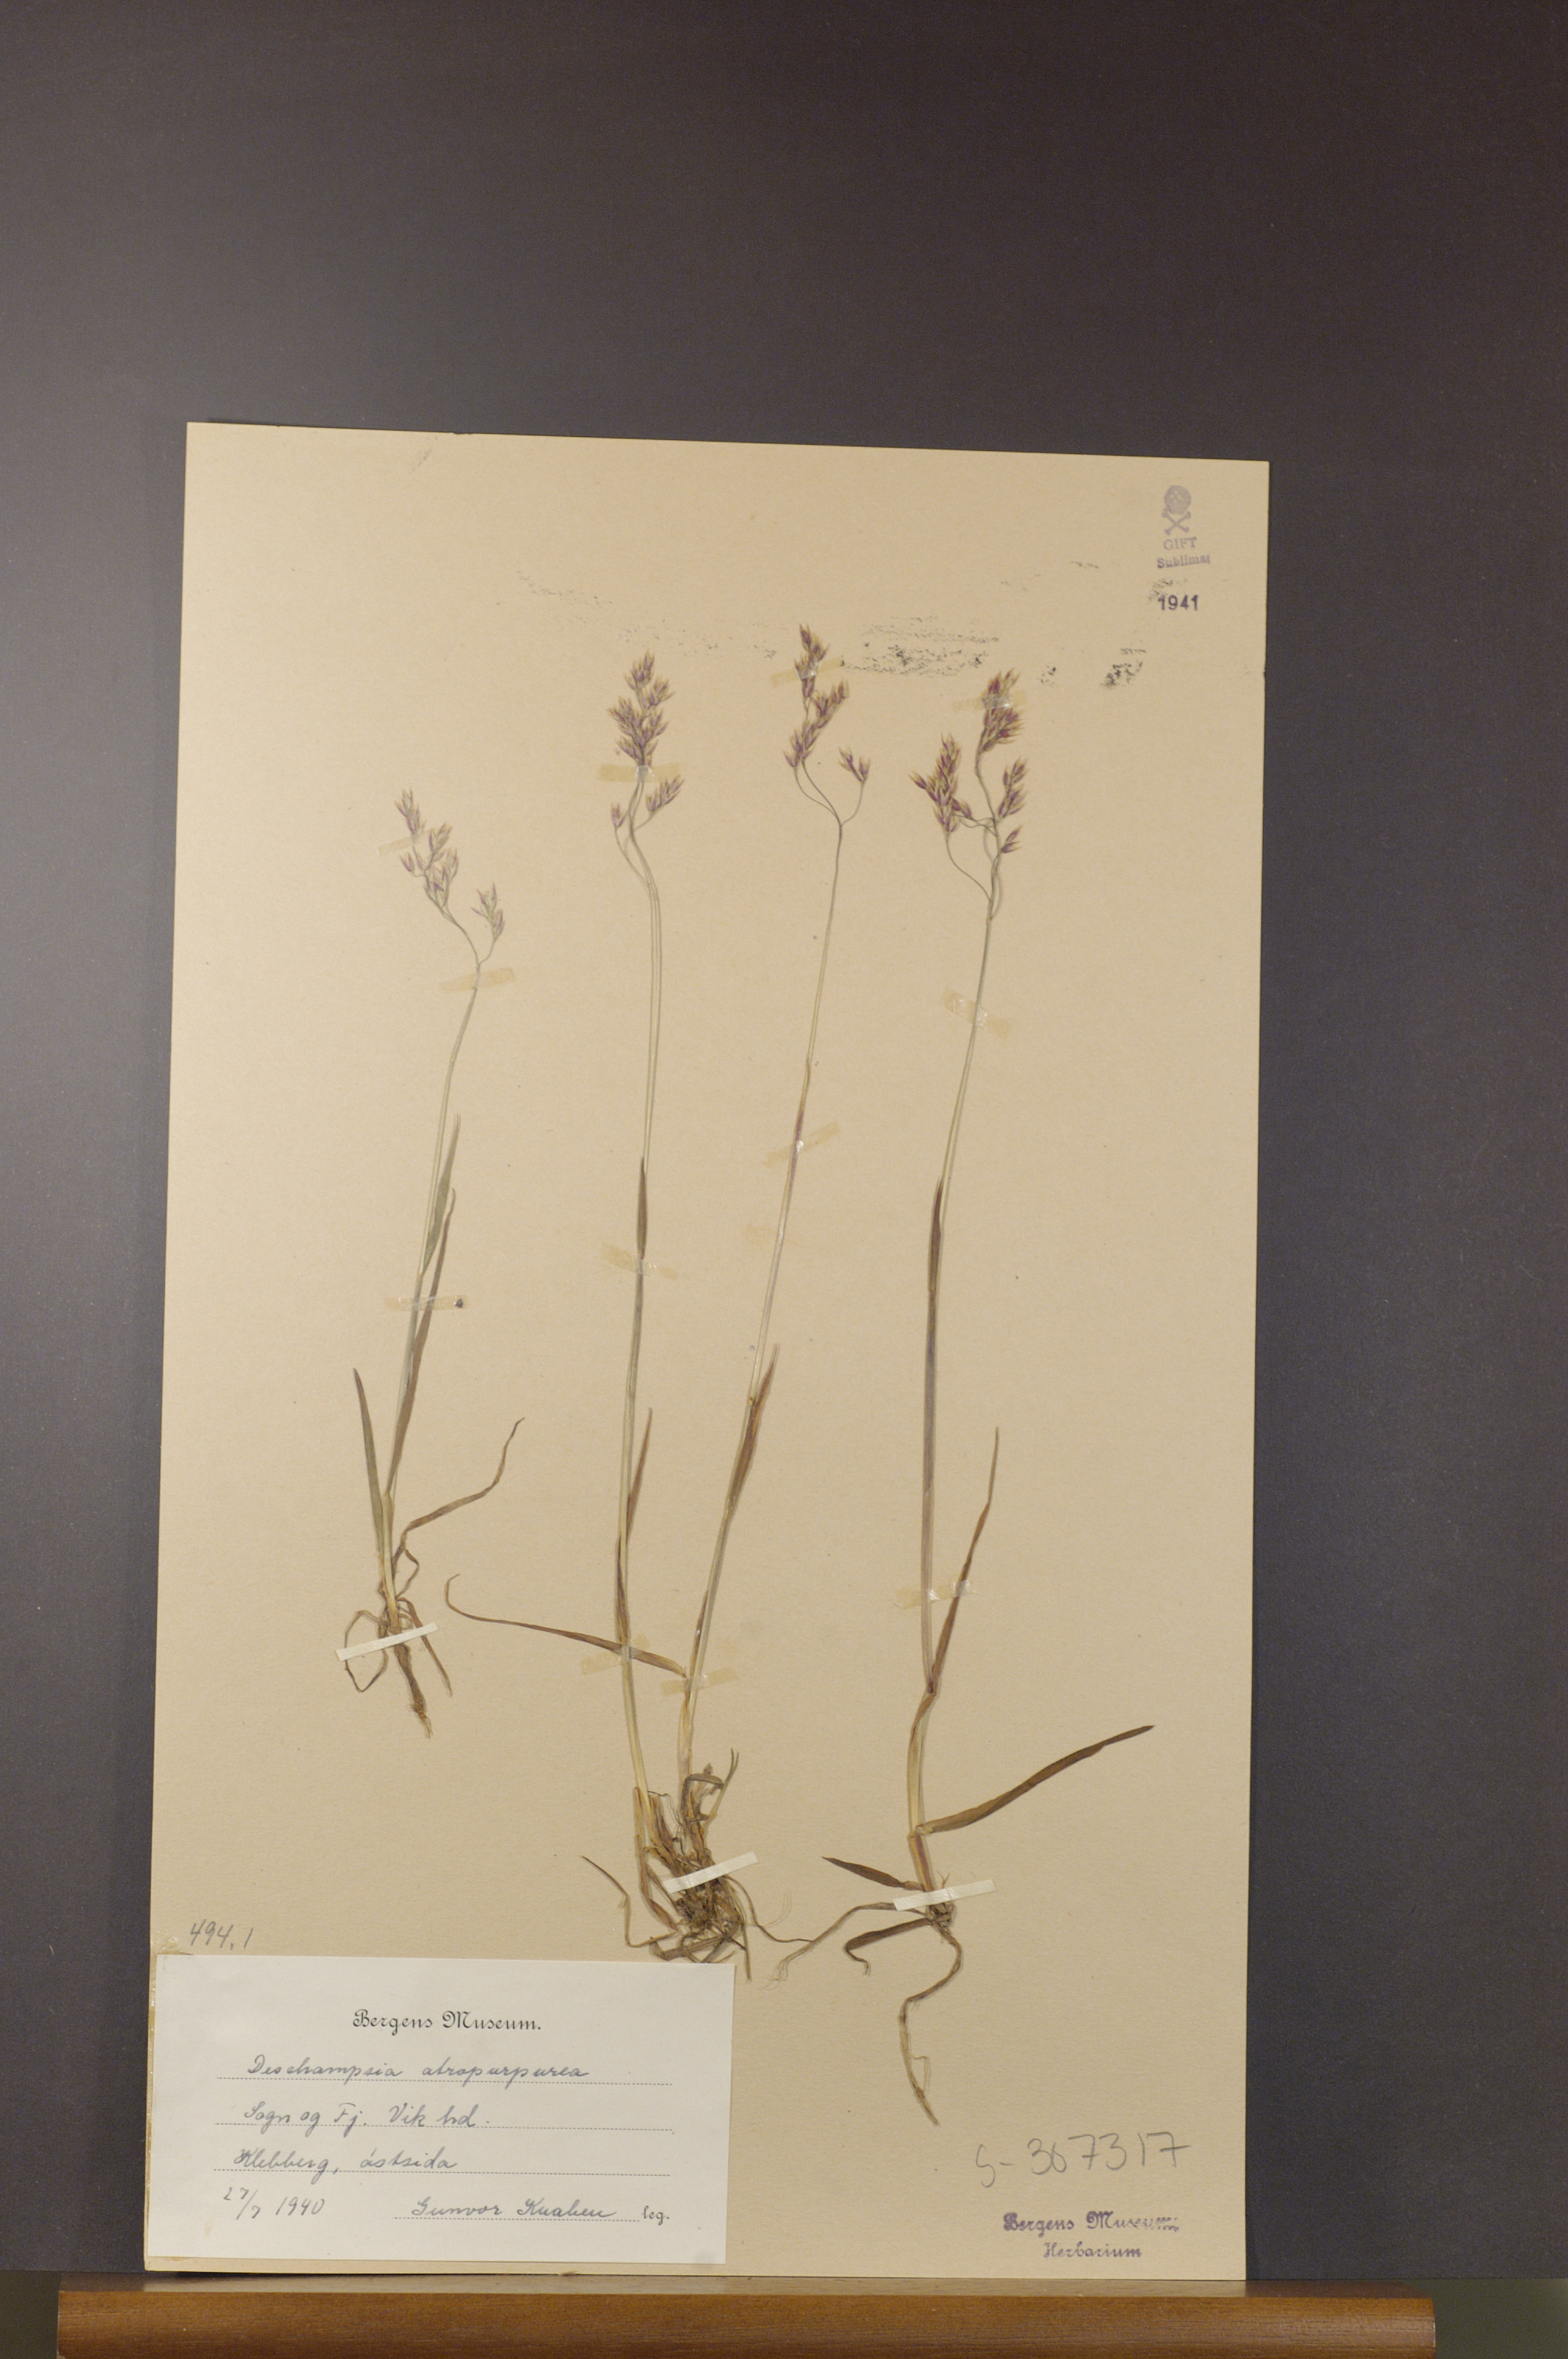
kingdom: Plantae
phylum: Tracheophyta
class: Liliopsida
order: Poales
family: Poaceae
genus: Vahlodea
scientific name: Vahlodea atropurpurea
